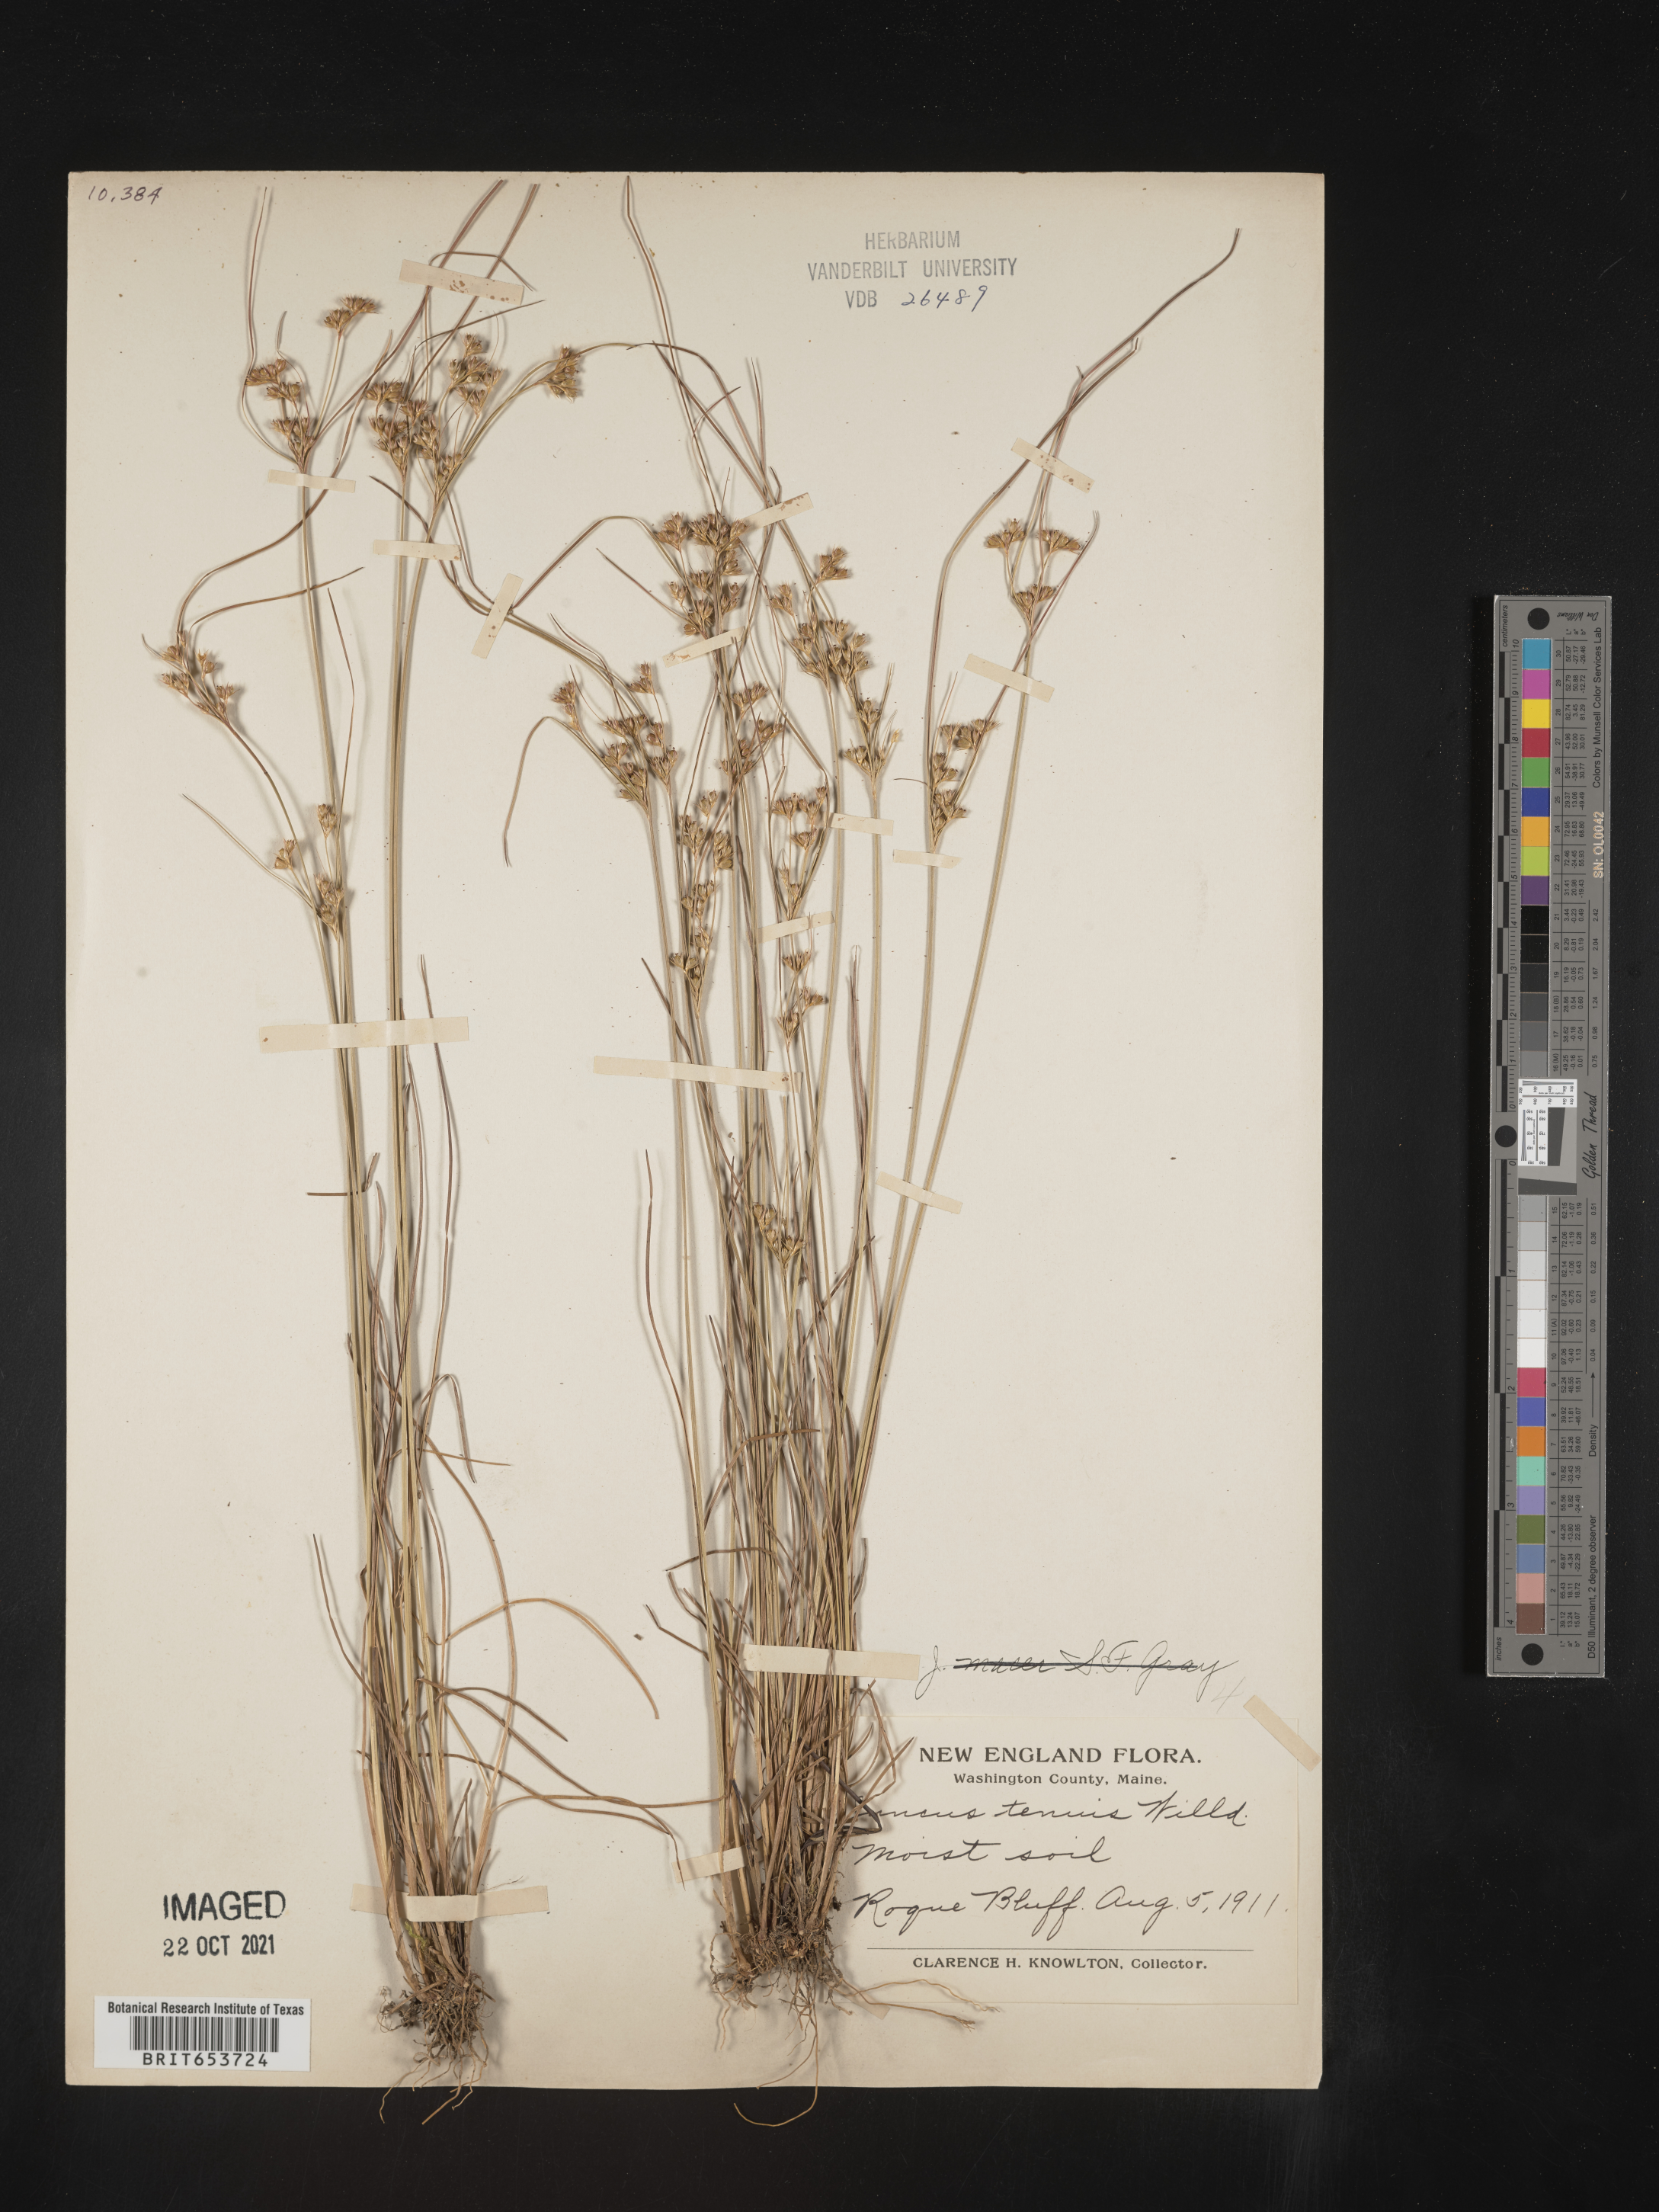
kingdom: Plantae
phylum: Tracheophyta
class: Liliopsida
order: Poales
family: Juncaceae
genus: Juncus
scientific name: Juncus tenuis
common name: Slender rush
